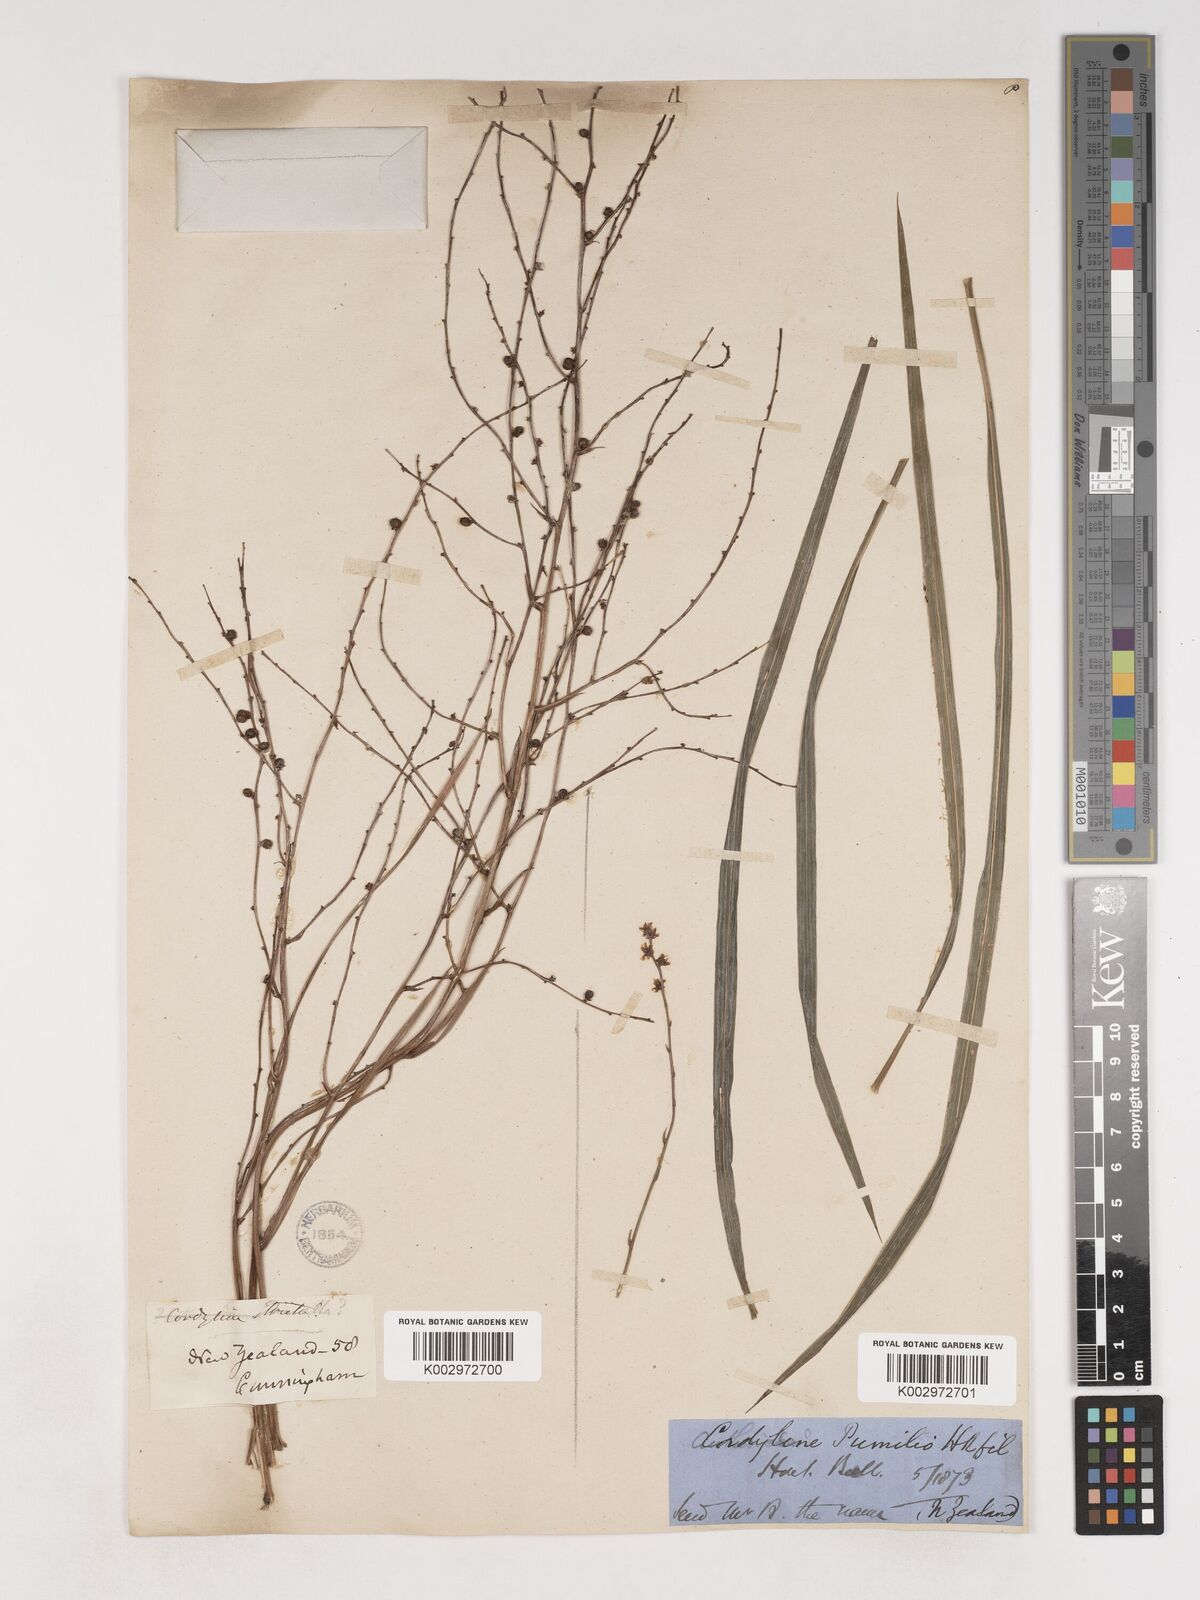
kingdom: Plantae
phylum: Tracheophyta
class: Liliopsida
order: Asparagales
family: Asparagaceae
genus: Cordyline
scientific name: Cordyline pumilio
